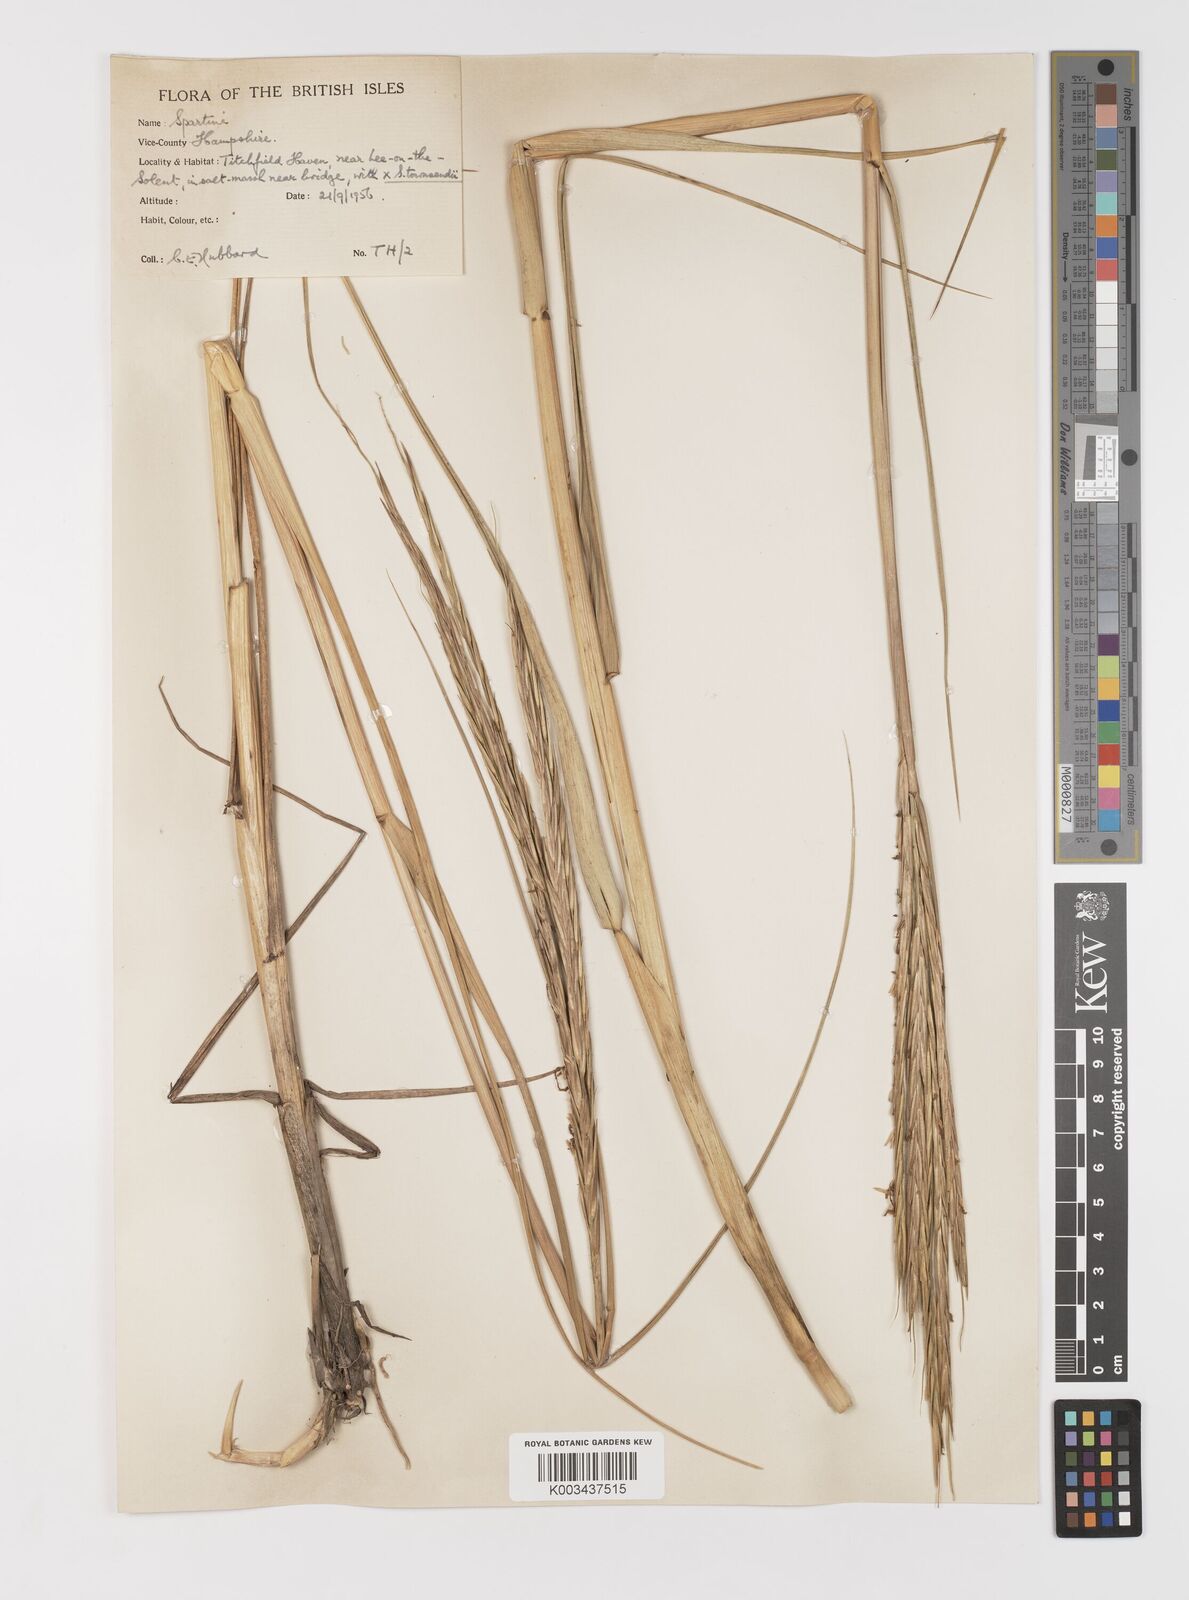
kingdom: Plantae
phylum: Tracheophyta
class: Liliopsida
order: Poales
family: Poaceae
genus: Sporobolus
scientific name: Sporobolus anglicus
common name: English cordgrass
